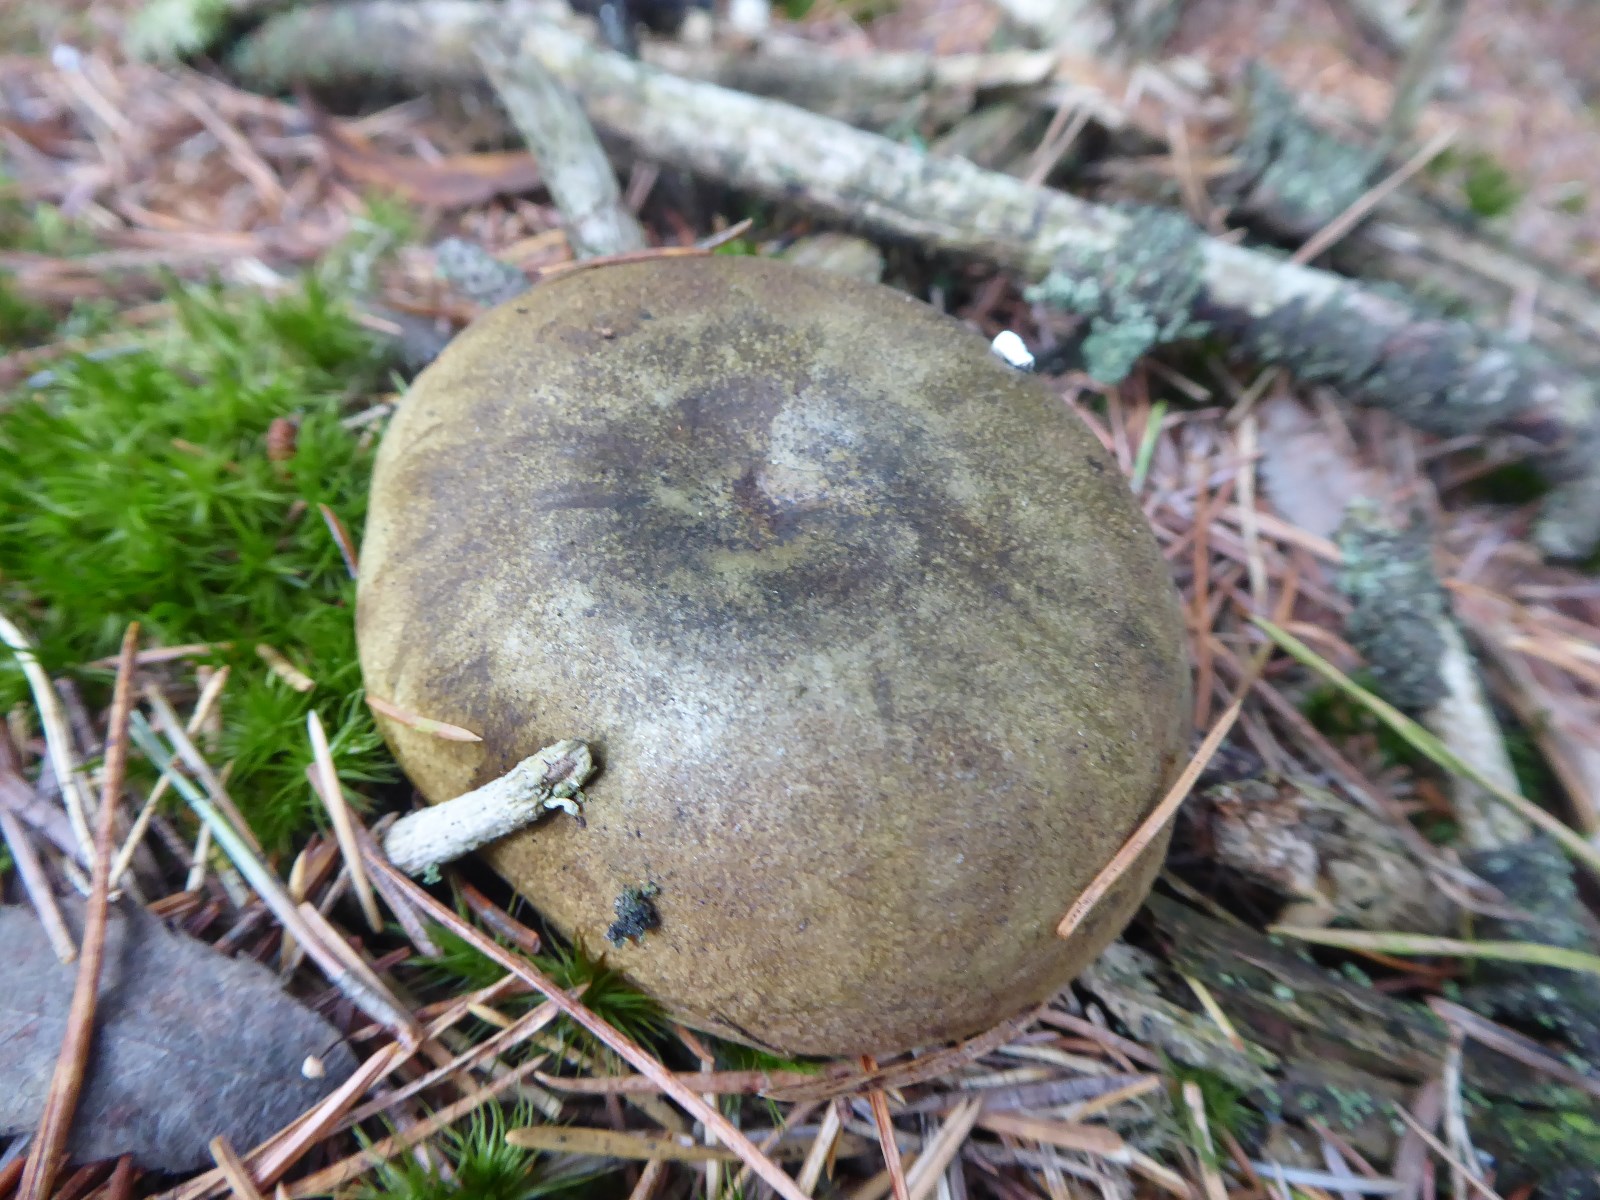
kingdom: Fungi
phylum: Basidiomycota
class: Agaricomycetes
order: Russulales
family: Russulaceae
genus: Lactarius
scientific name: Lactarius necator
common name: manddraber-mælkehat
